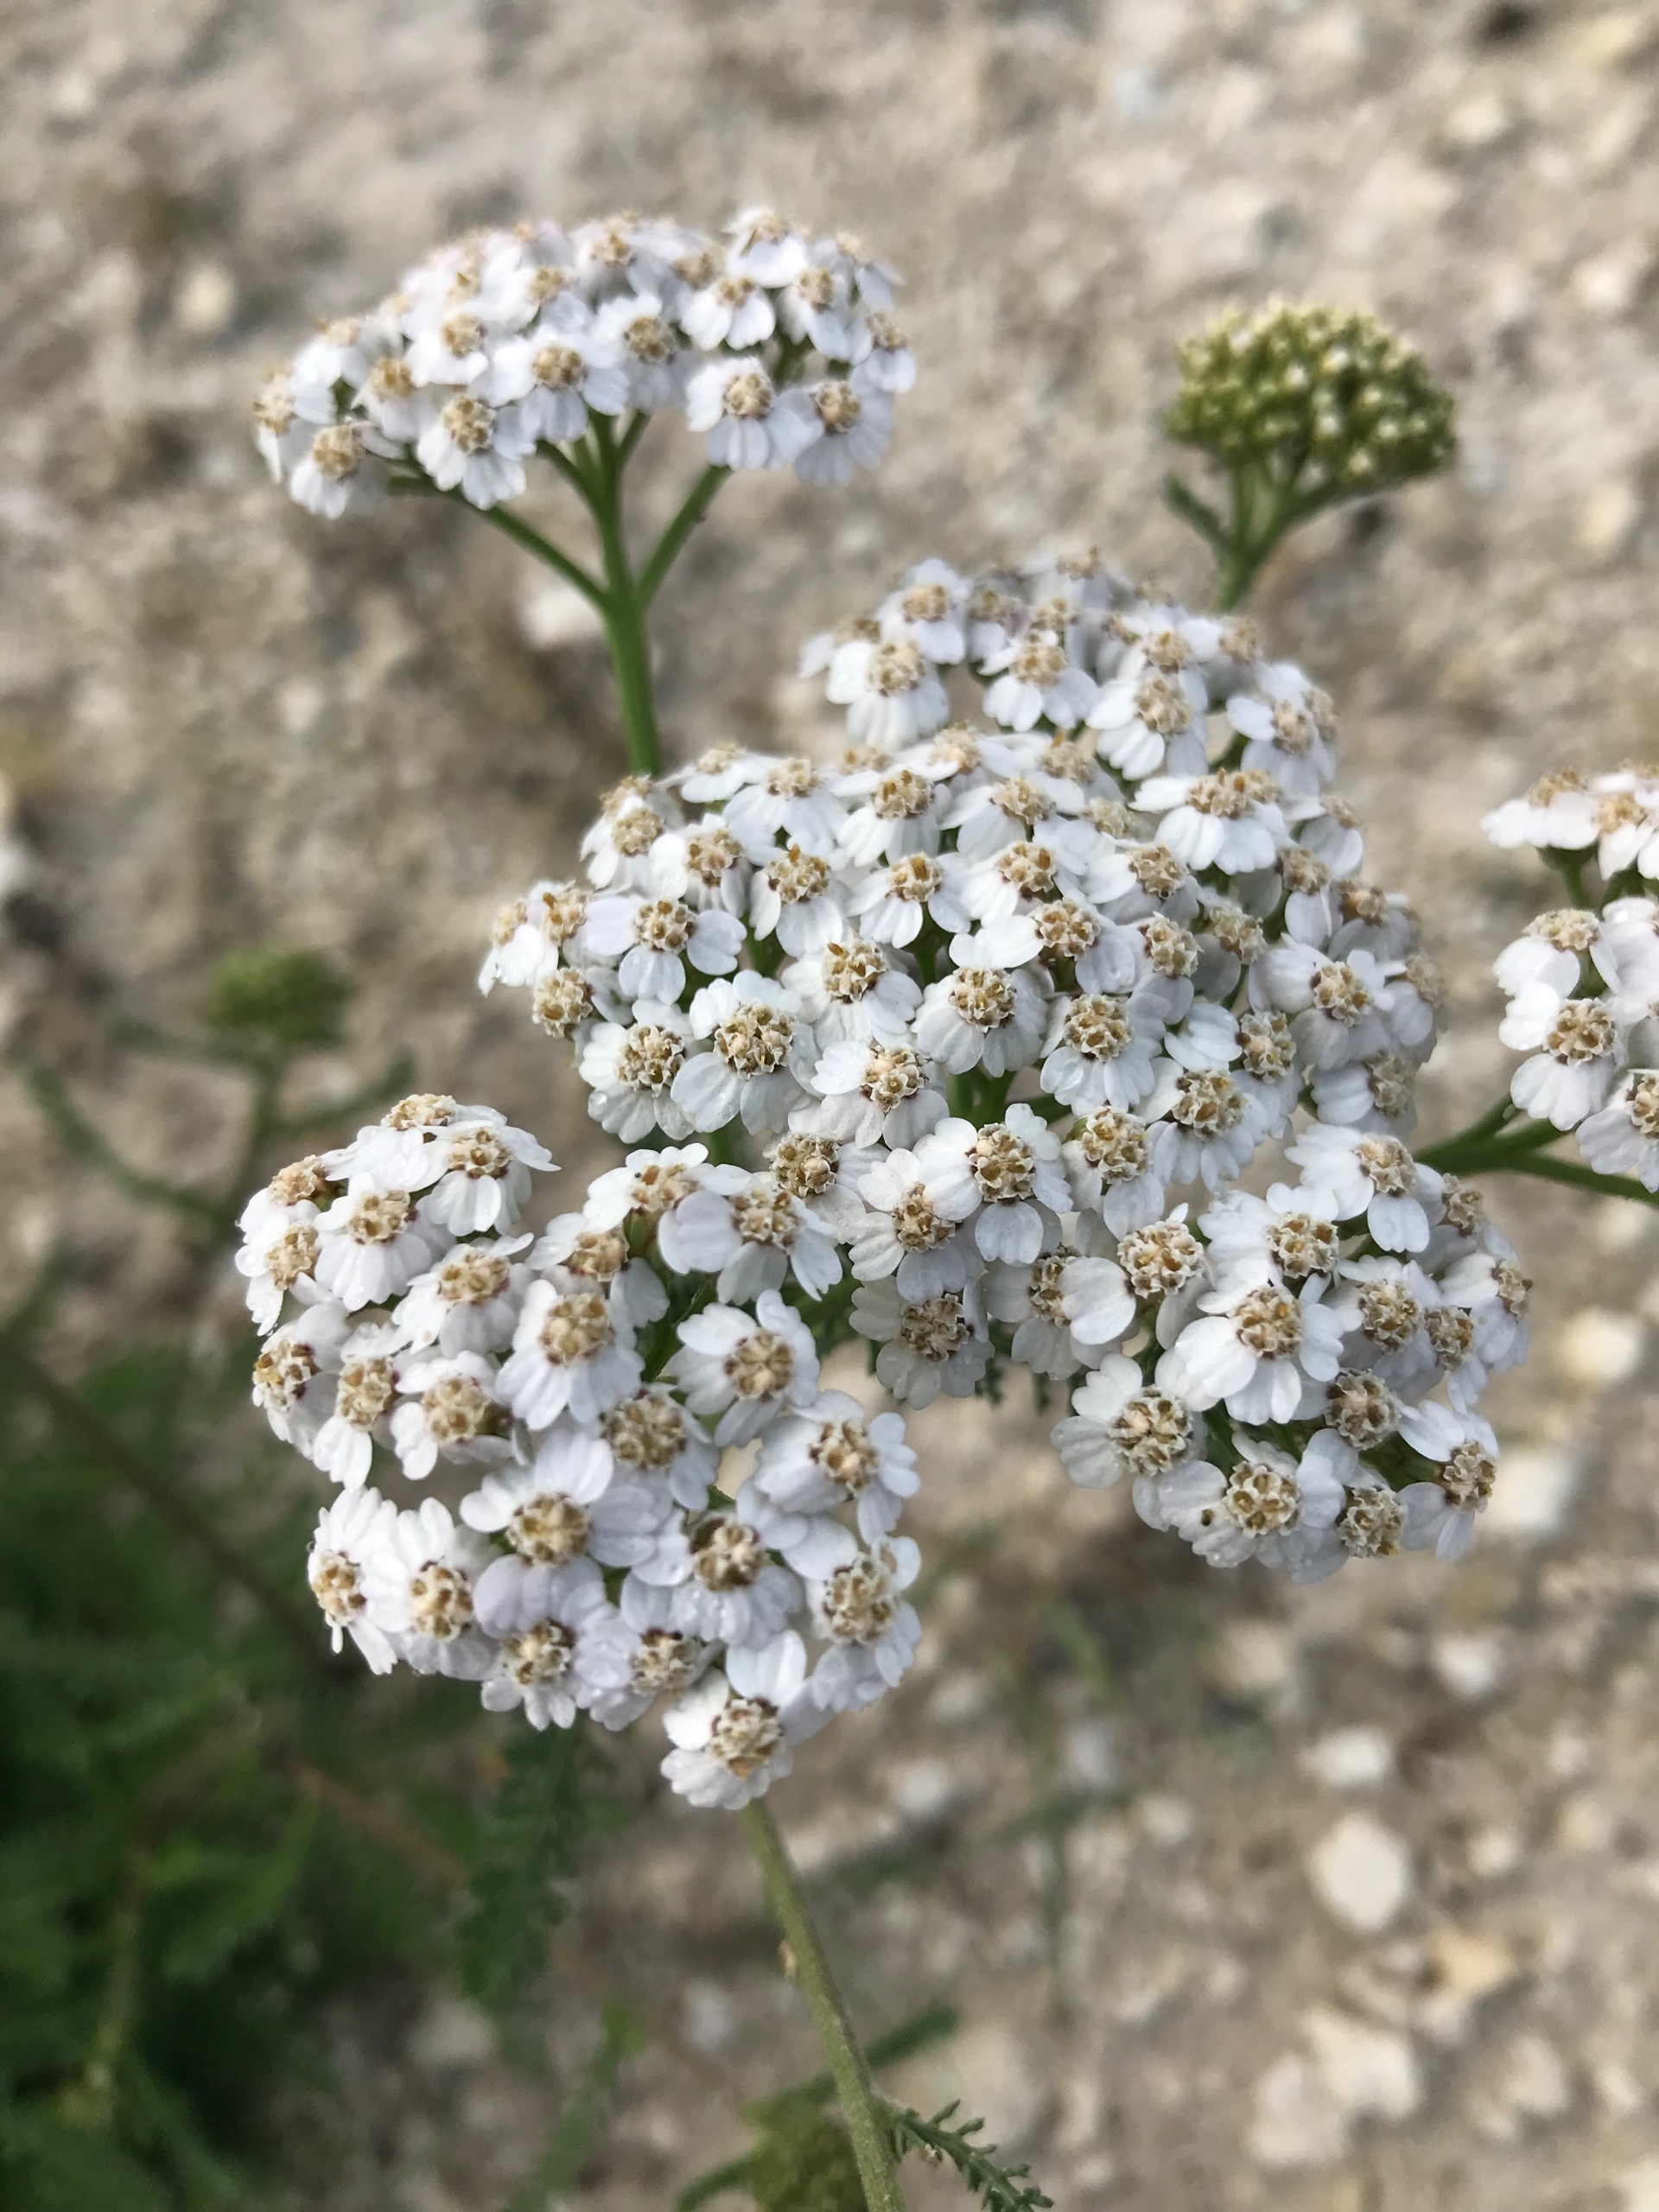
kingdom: Plantae
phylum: Tracheophyta
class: Magnoliopsida
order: Asterales
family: Asteraceae
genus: Achillea
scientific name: Achillea millefolium
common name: Almindelig røllike
